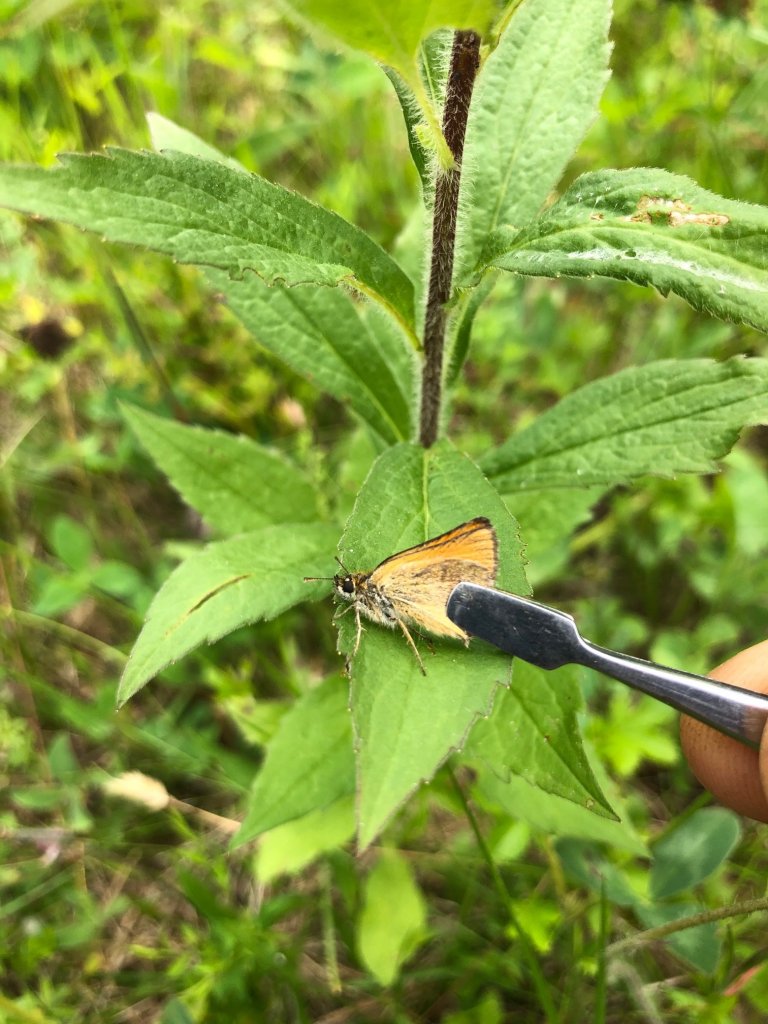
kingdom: Animalia
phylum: Arthropoda
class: Insecta
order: Lepidoptera
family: Hesperiidae
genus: Thymelicus
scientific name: Thymelicus lineola
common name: European Skipper
